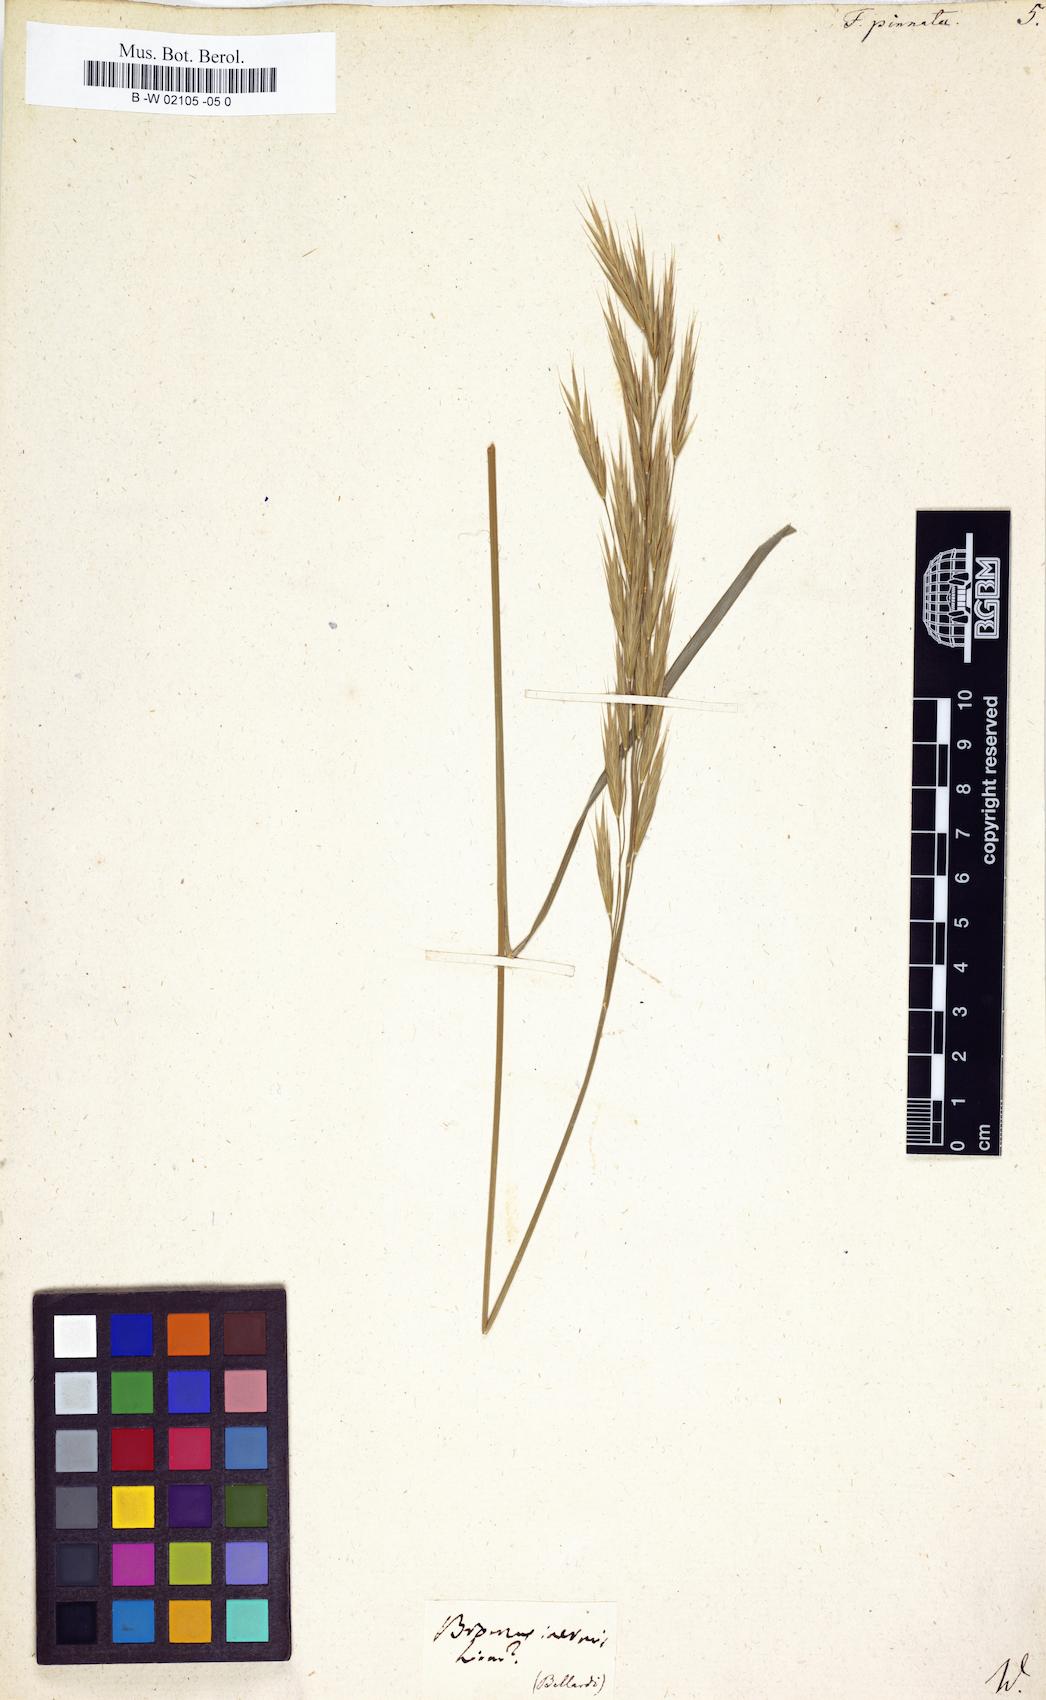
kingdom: Plantae
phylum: Tracheophyta
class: Liliopsida
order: Poales
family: Poaceae
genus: Brachypodium
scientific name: Brachypodium pinnatum
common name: Tor grass
